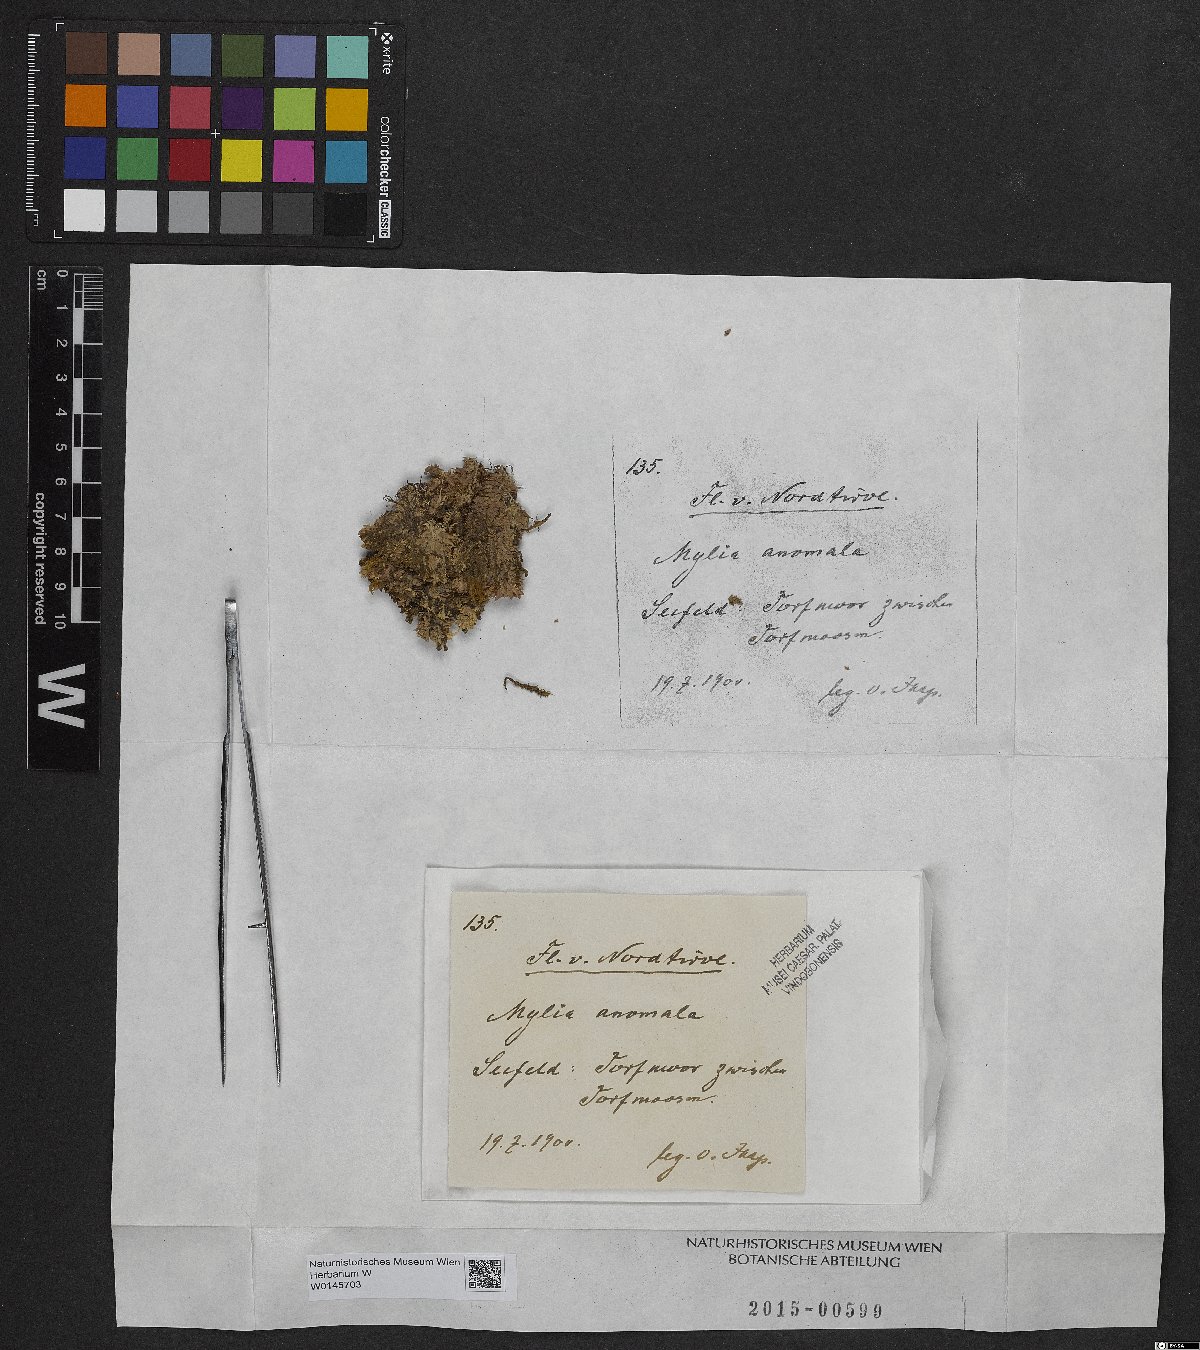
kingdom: Plantae
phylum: Marchantiophyta
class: Jungermanniopsida
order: Jungermanniales
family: Myliaceae
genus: Mylia
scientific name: Mylia anomala
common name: Anomalous flapwort
